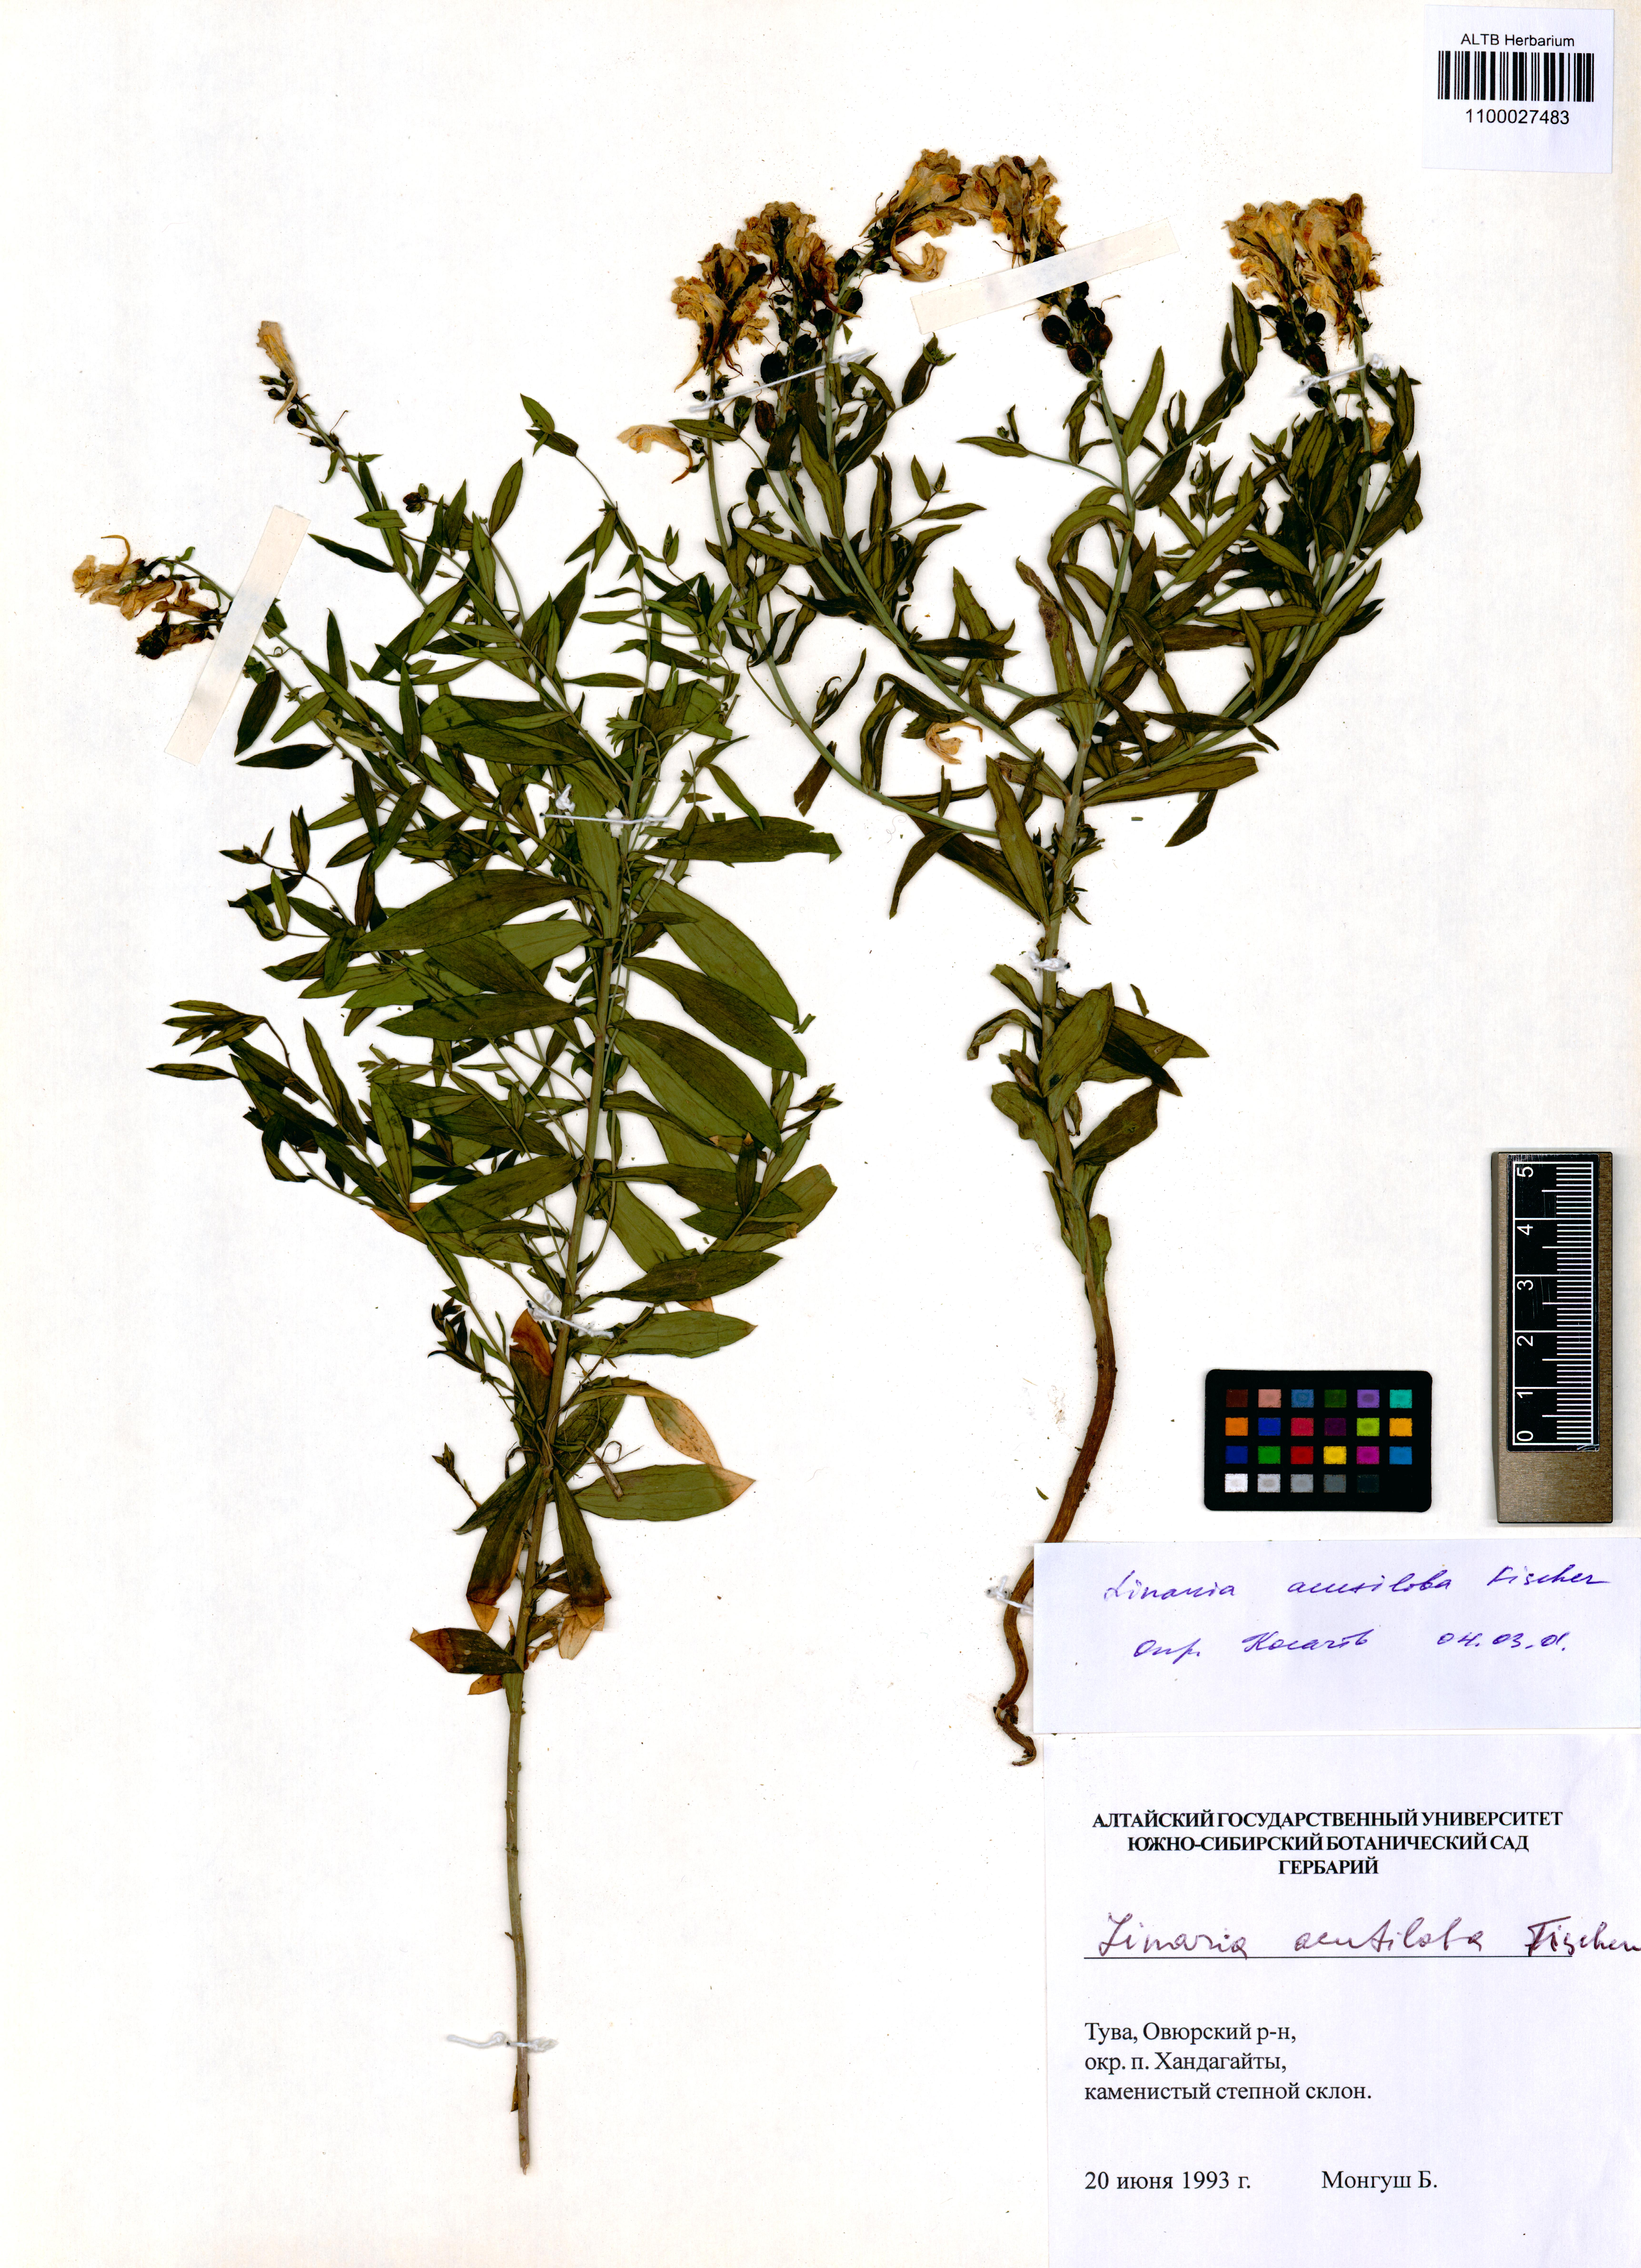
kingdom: Plantae
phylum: Tracheophyta
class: Magnoliopsida
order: Lamiales
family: Plantaginaceae
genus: Linaria
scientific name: Linaria acutiloba
